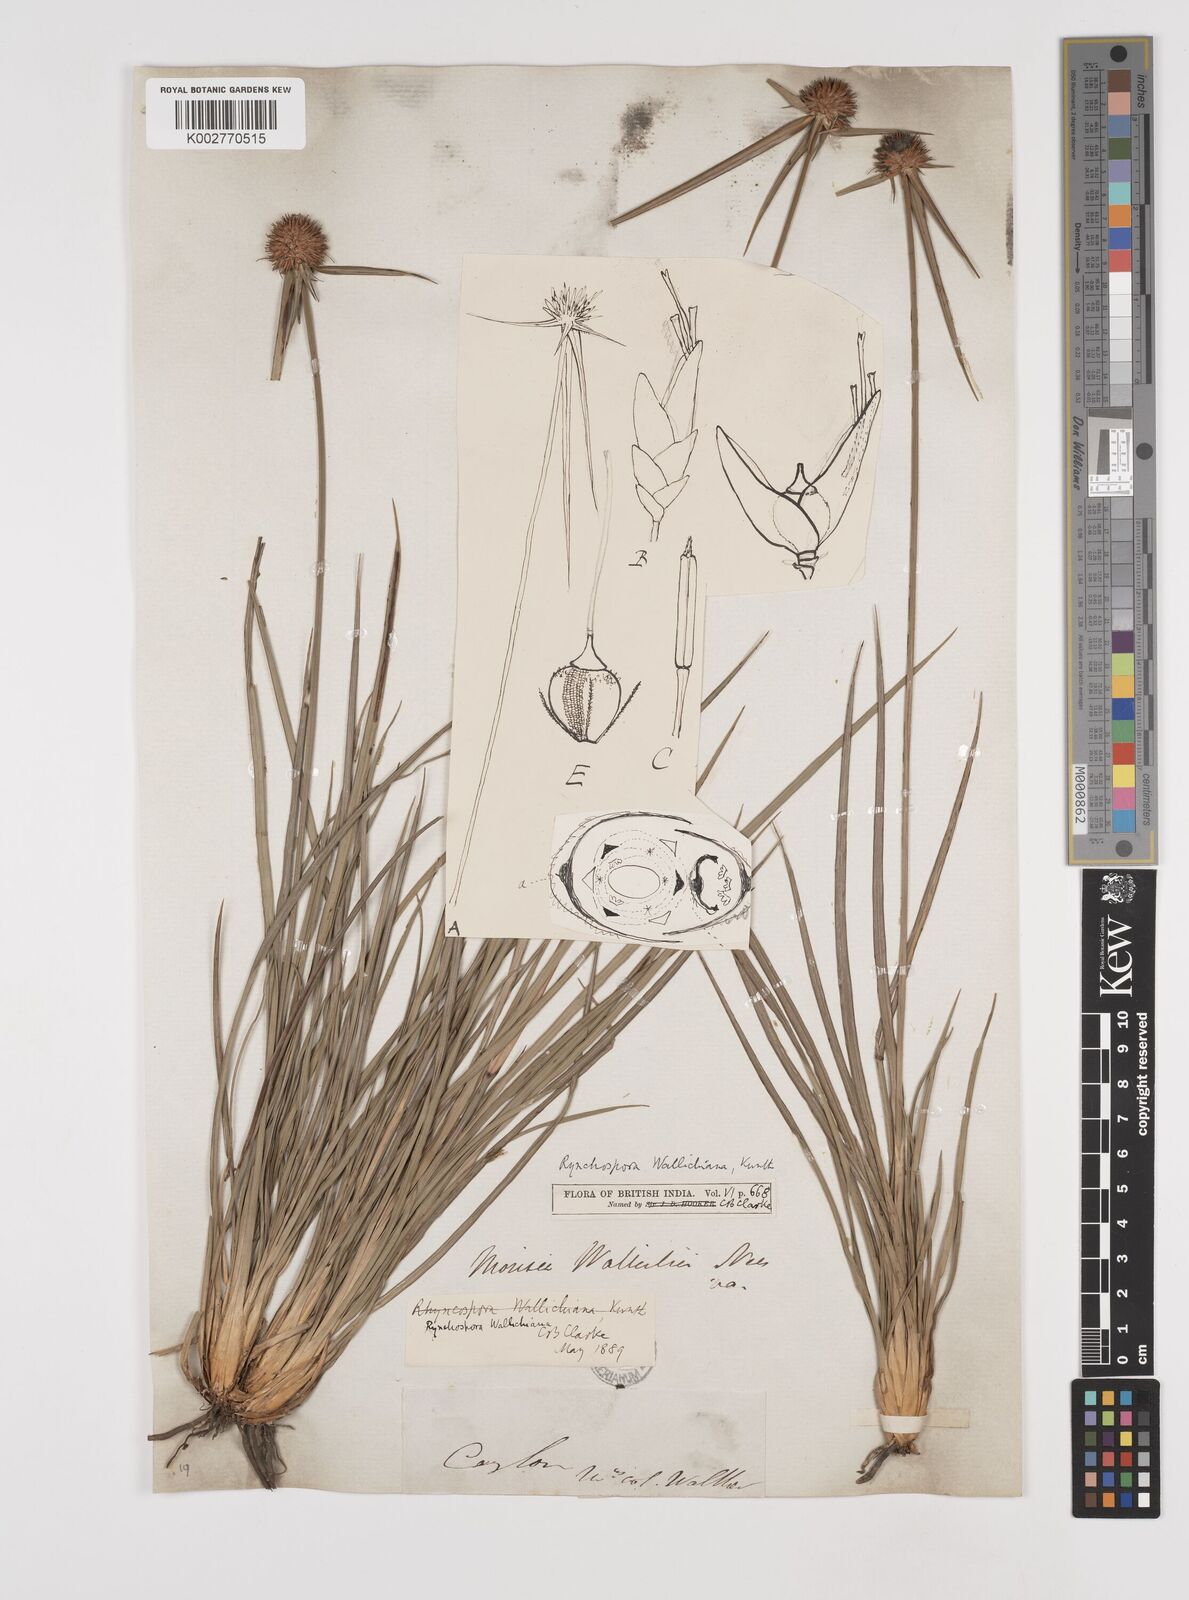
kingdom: Plantae
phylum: Tracheophyta
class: Liliopsida
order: Poales
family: Cyperaceae
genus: Rhynchospora
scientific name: Rhynchospora rubra
